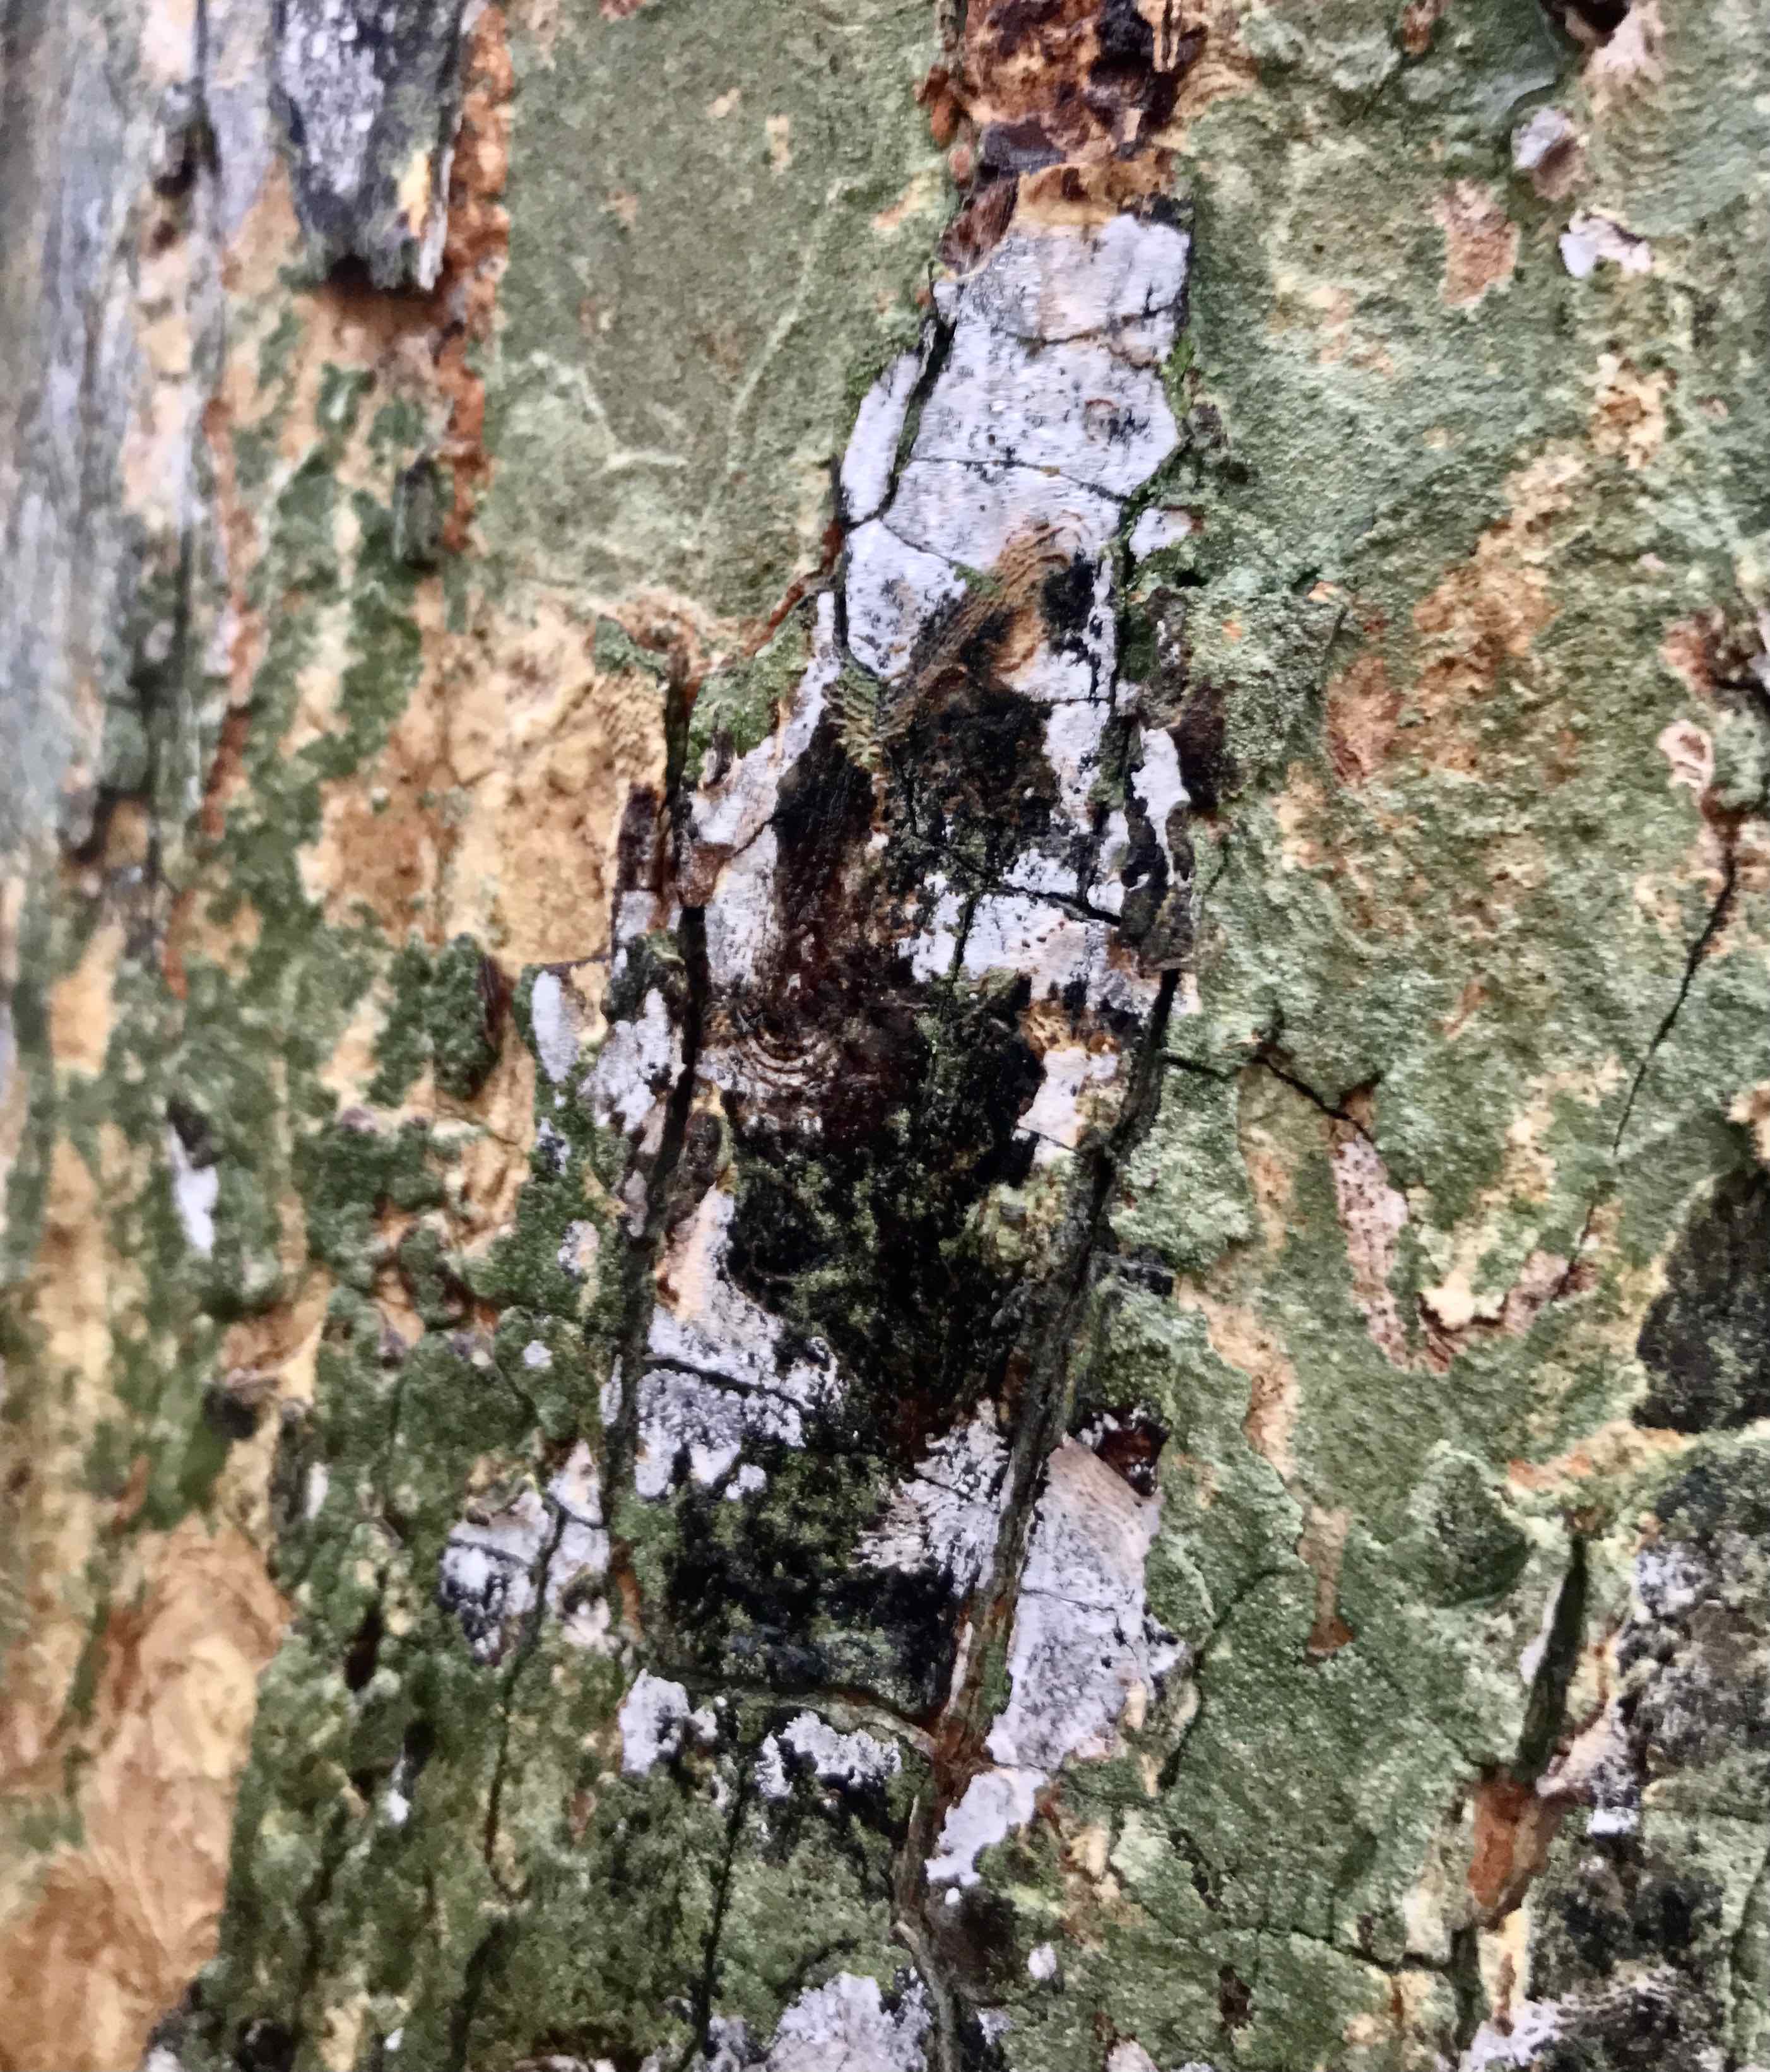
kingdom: Fungi
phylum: Basidiomycota
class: Agaricomycetes
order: Agaricales
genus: Dendrothele
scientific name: Dendrothele acerina
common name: navr-kalkplet
